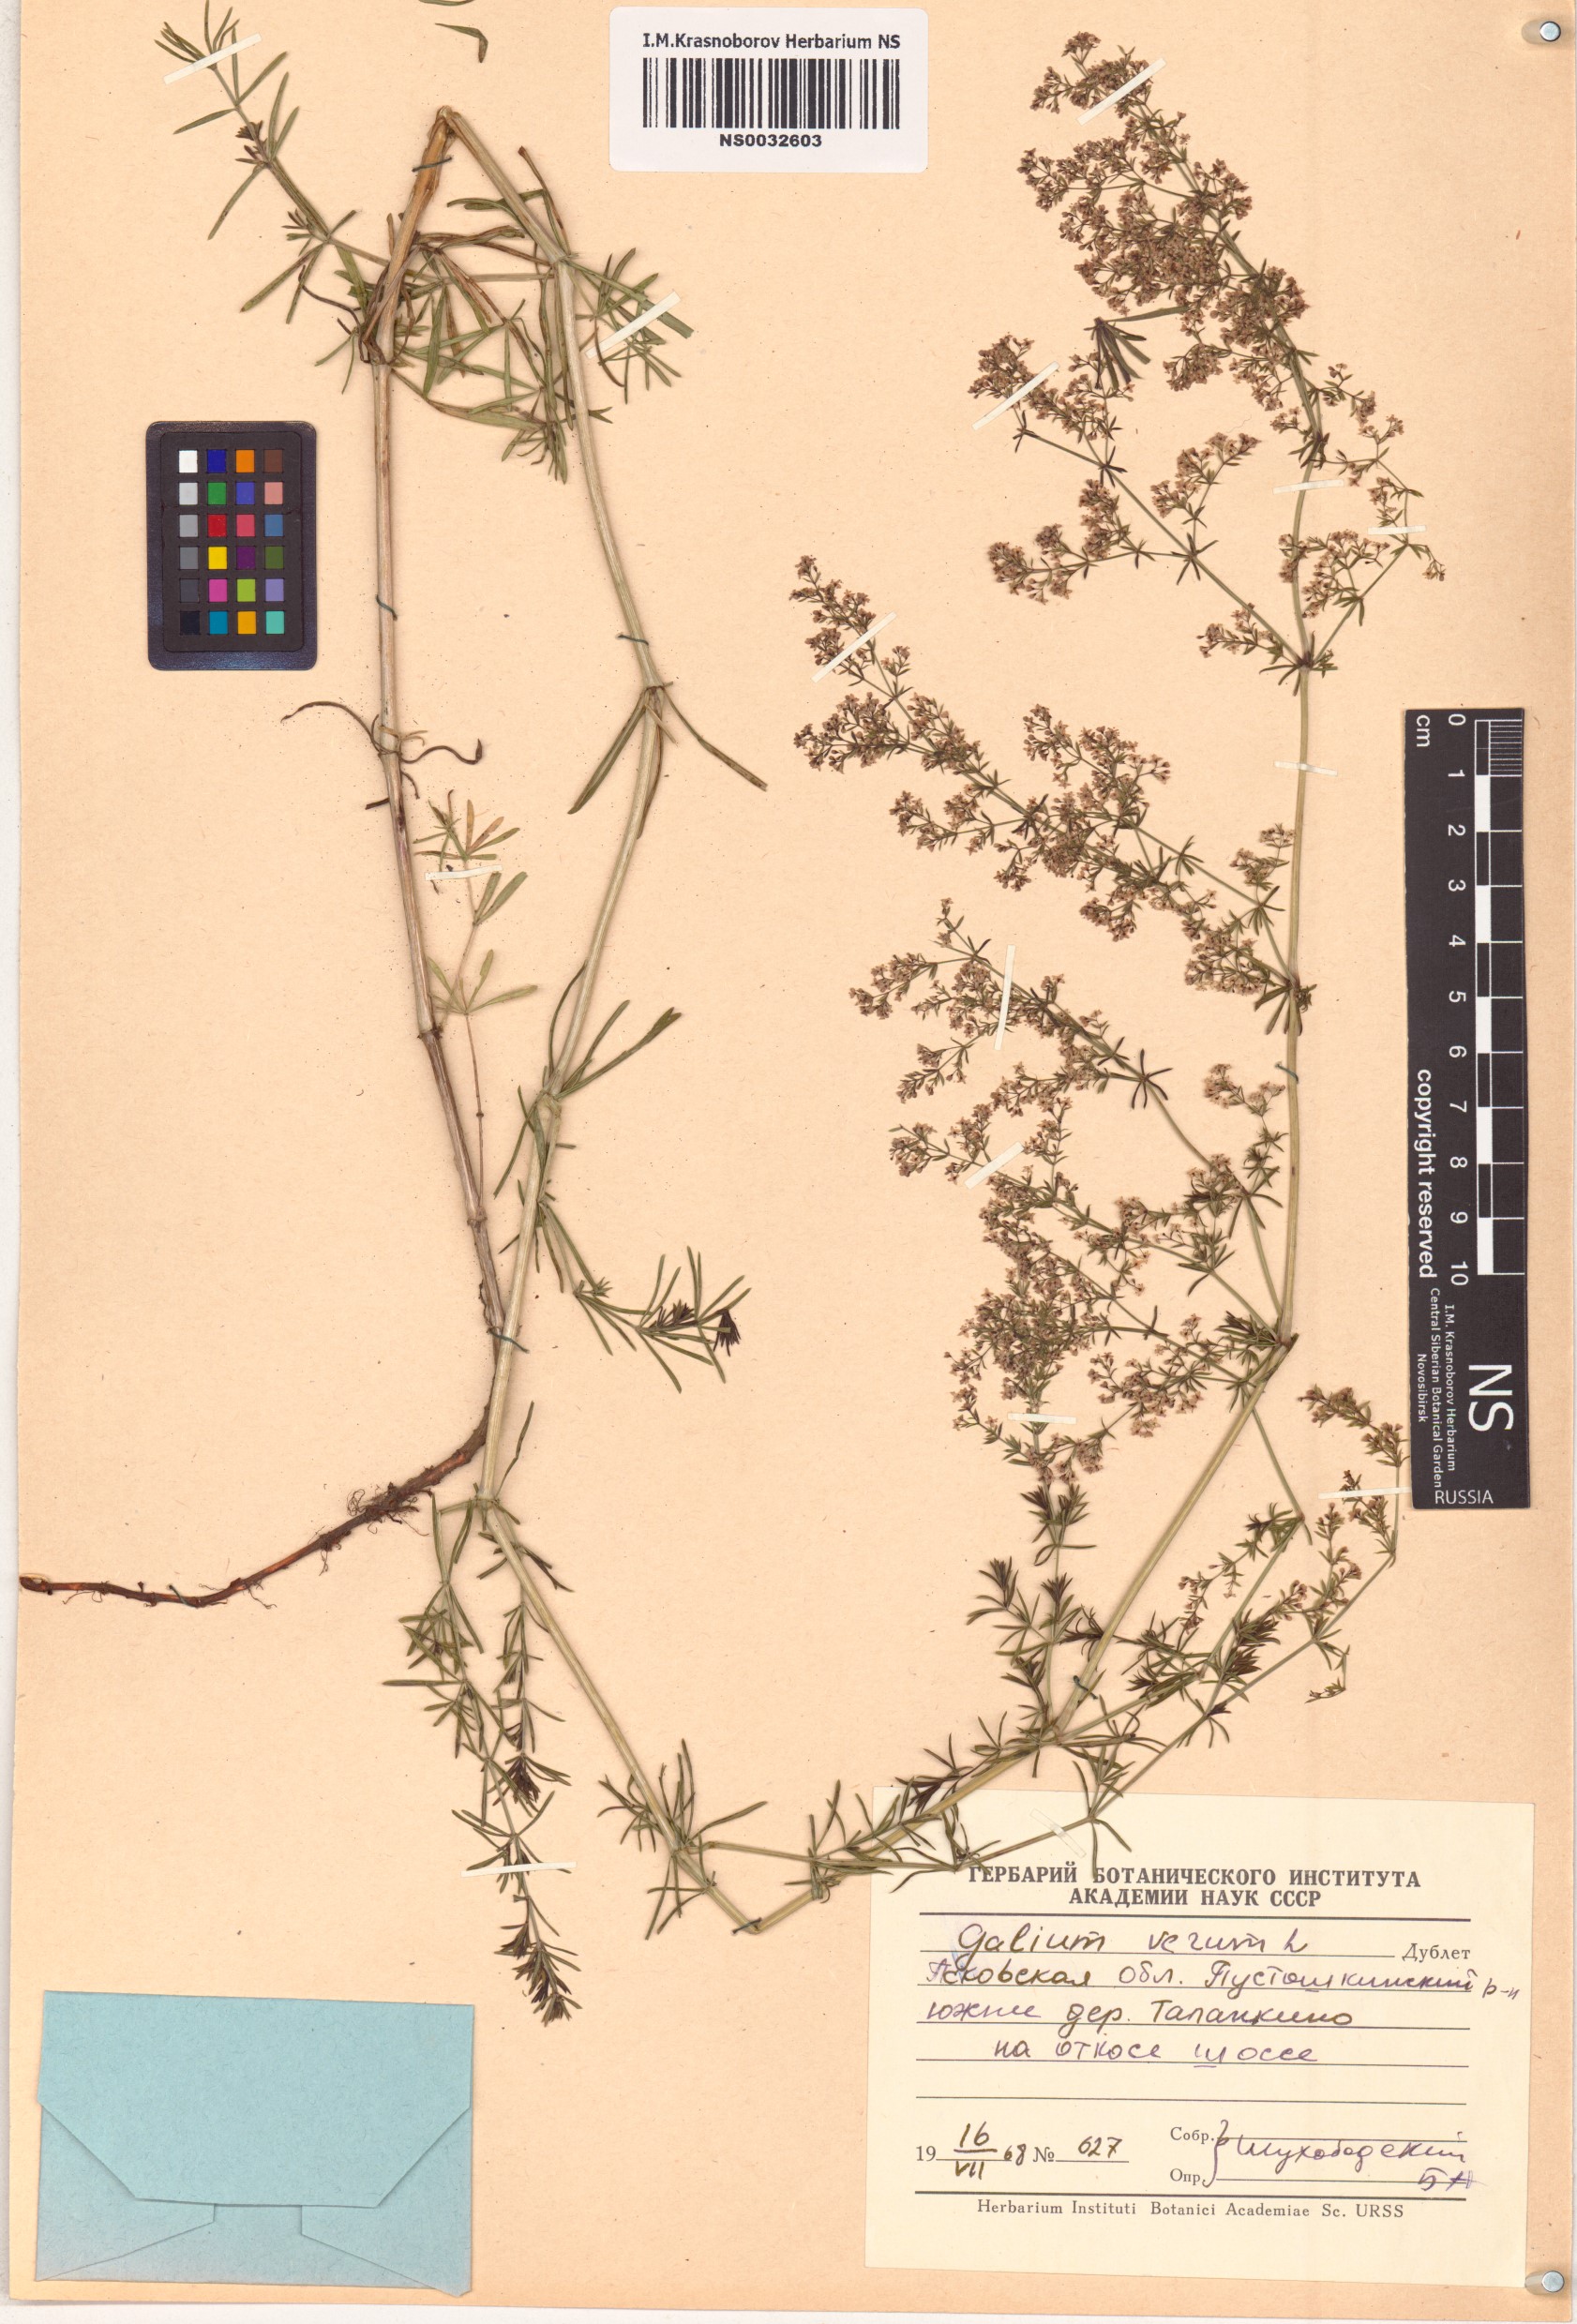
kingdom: Plantae
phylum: Tracheophyta
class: Magnoliopsida
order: Gentianales
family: Rubiaceae
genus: Galium
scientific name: Galium verum
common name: Lady's bedstraw
